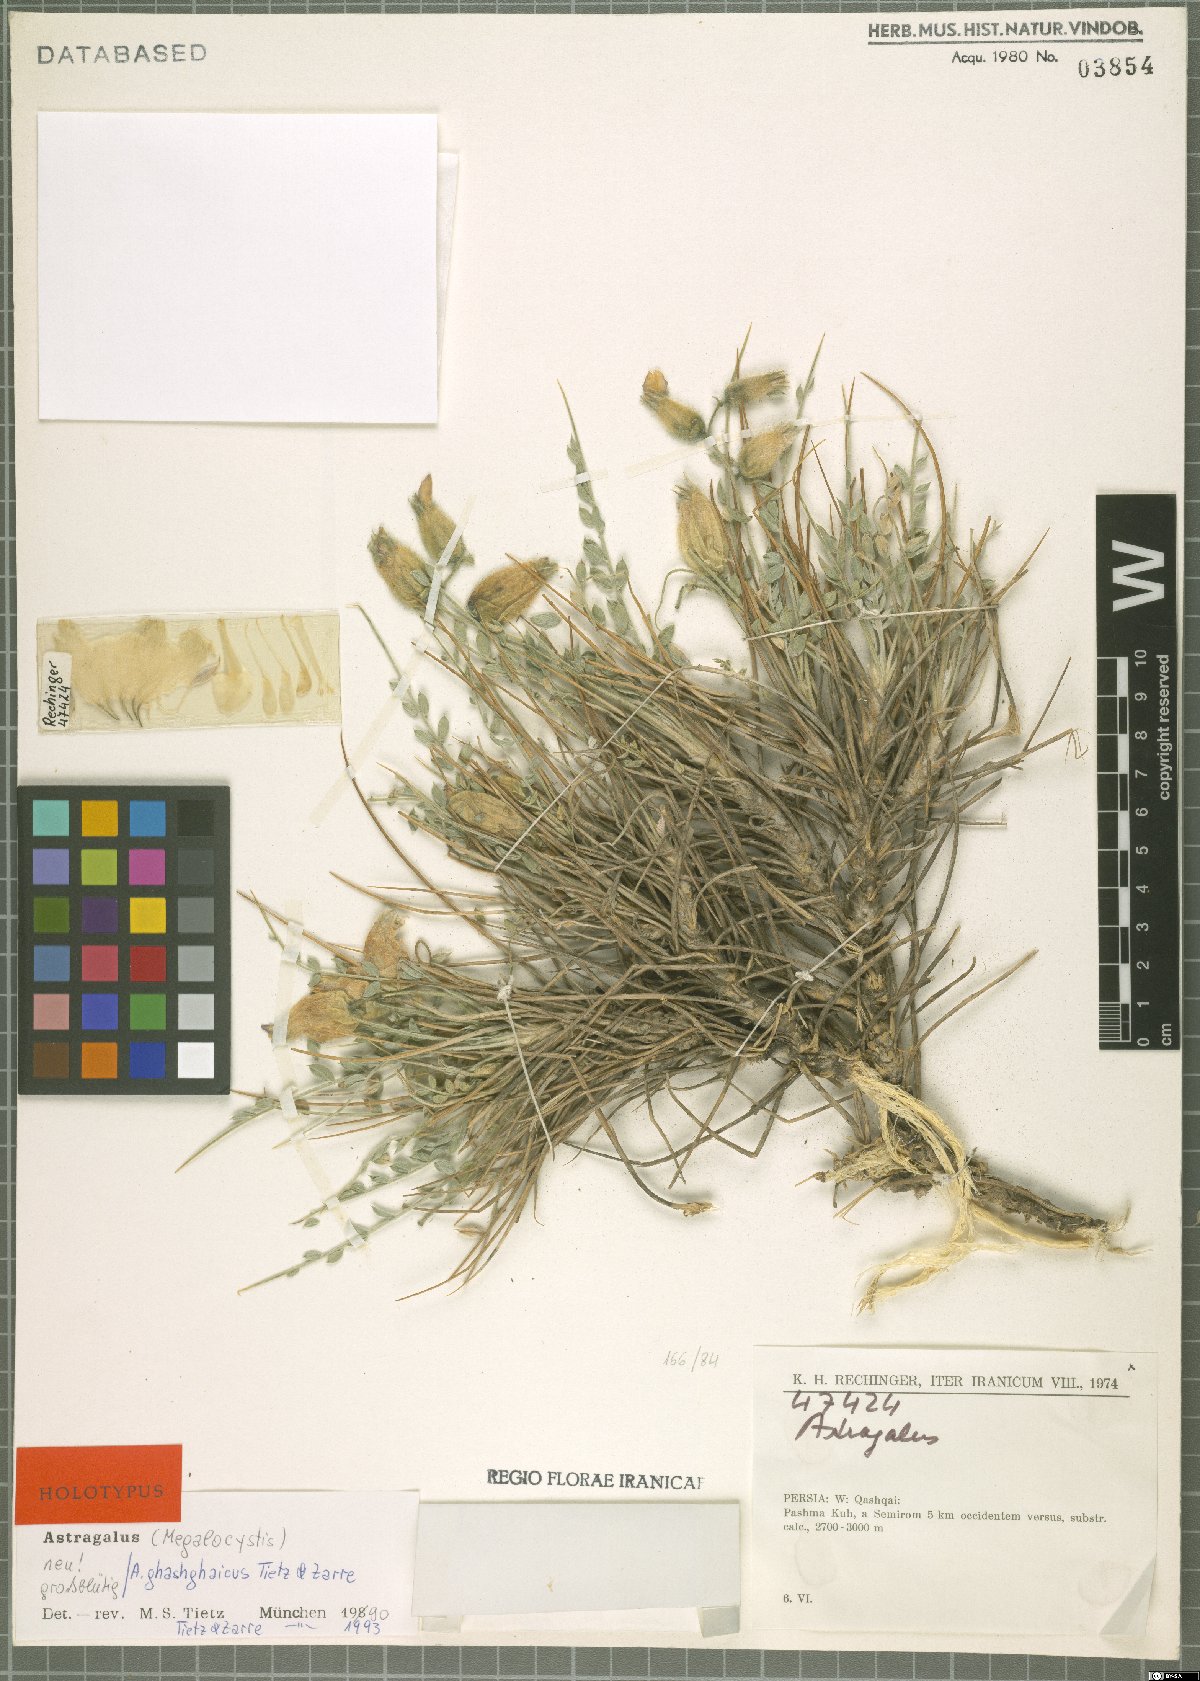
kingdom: Plantae
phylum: Tracheophyta
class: Magnoliopsida
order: Fabales
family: Fabaceae
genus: Astragalus
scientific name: Astragalus ghashghaicus
